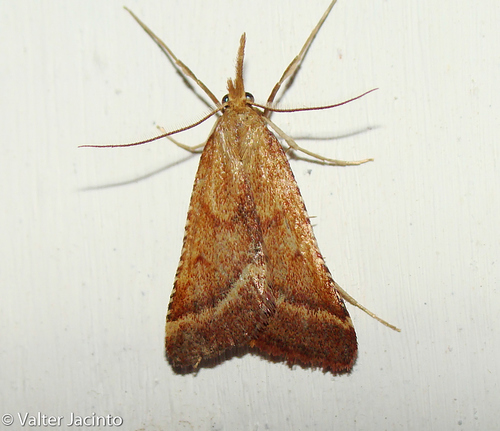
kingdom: Animalia
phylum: Arthropoda
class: Insecta
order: Lepidoptera
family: Pyralidae
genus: Synaphe
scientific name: Synaphe punctalis
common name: Long-legged tabby
